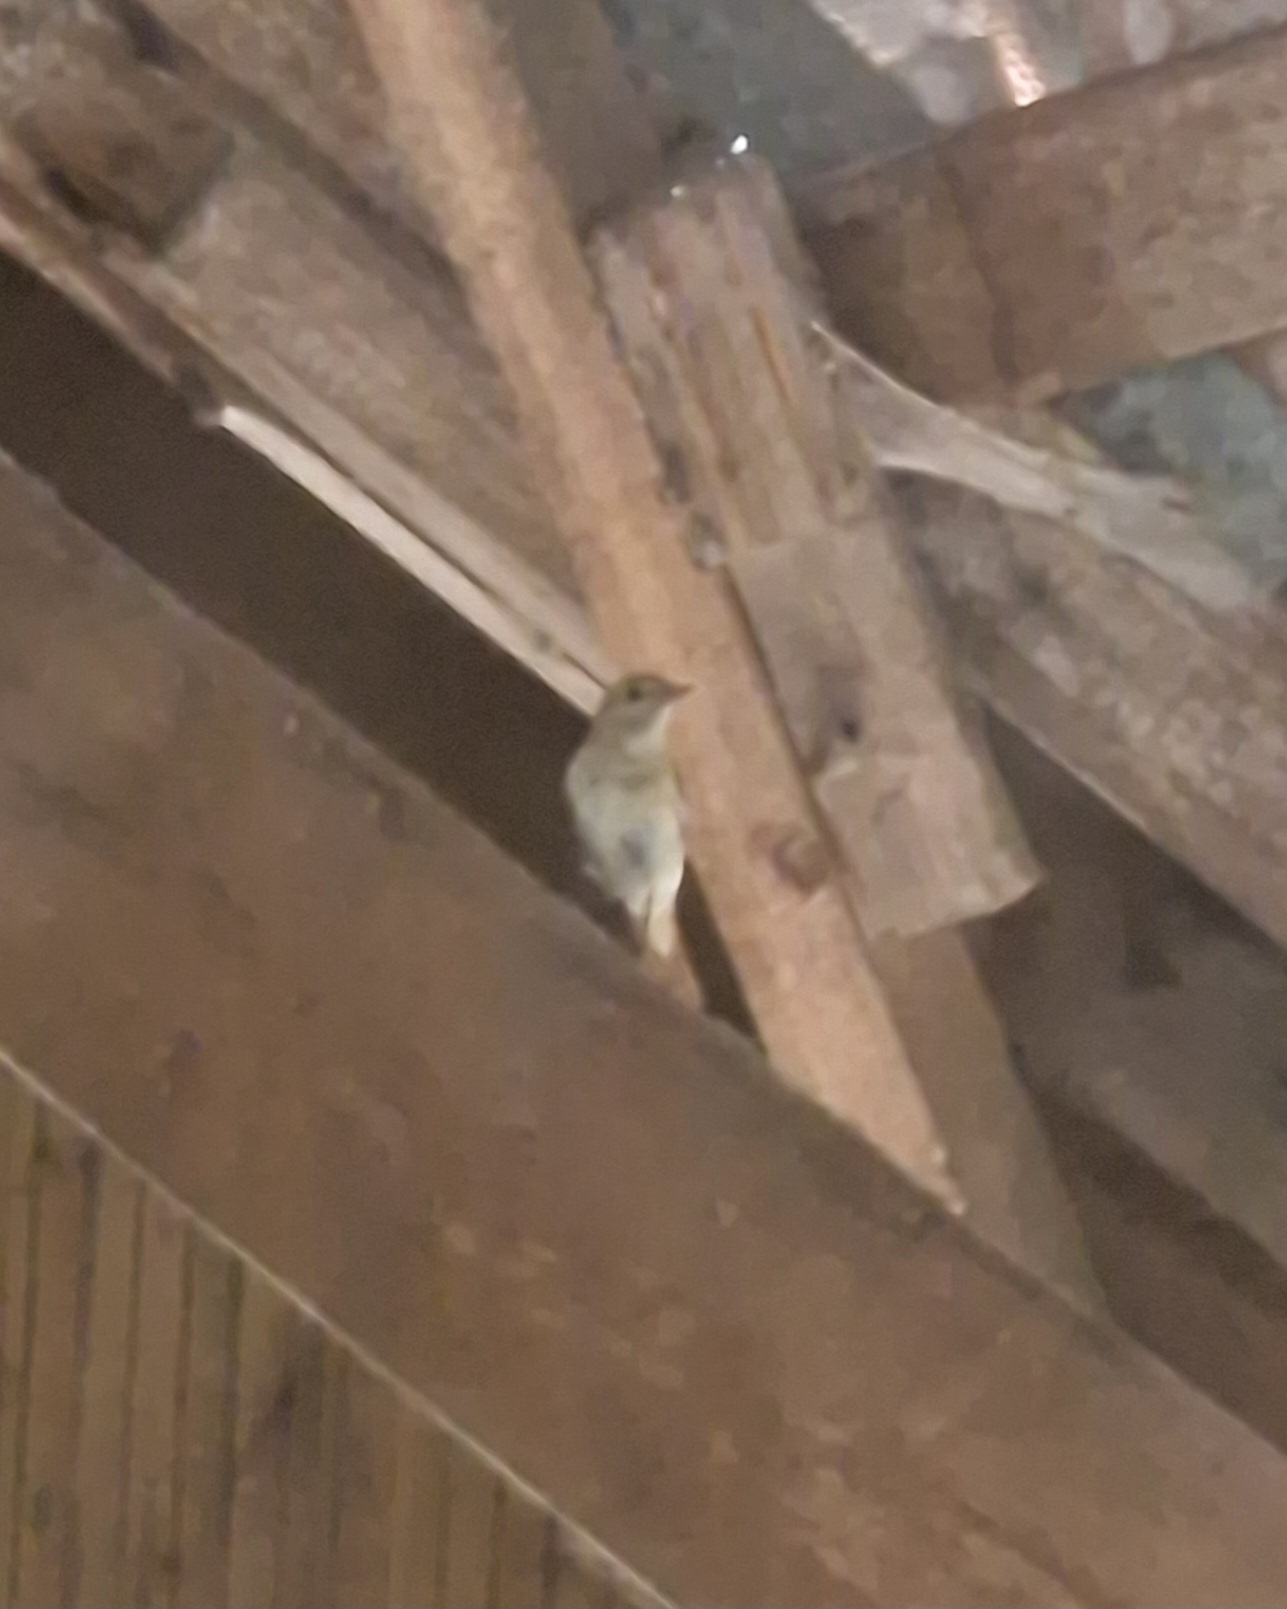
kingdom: Animalia
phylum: Chordata
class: Aves
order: Passeriformes
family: Muscicapidae
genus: Phoenicurus
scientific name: Phoenicurus phoenicurus
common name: Rødstjert
